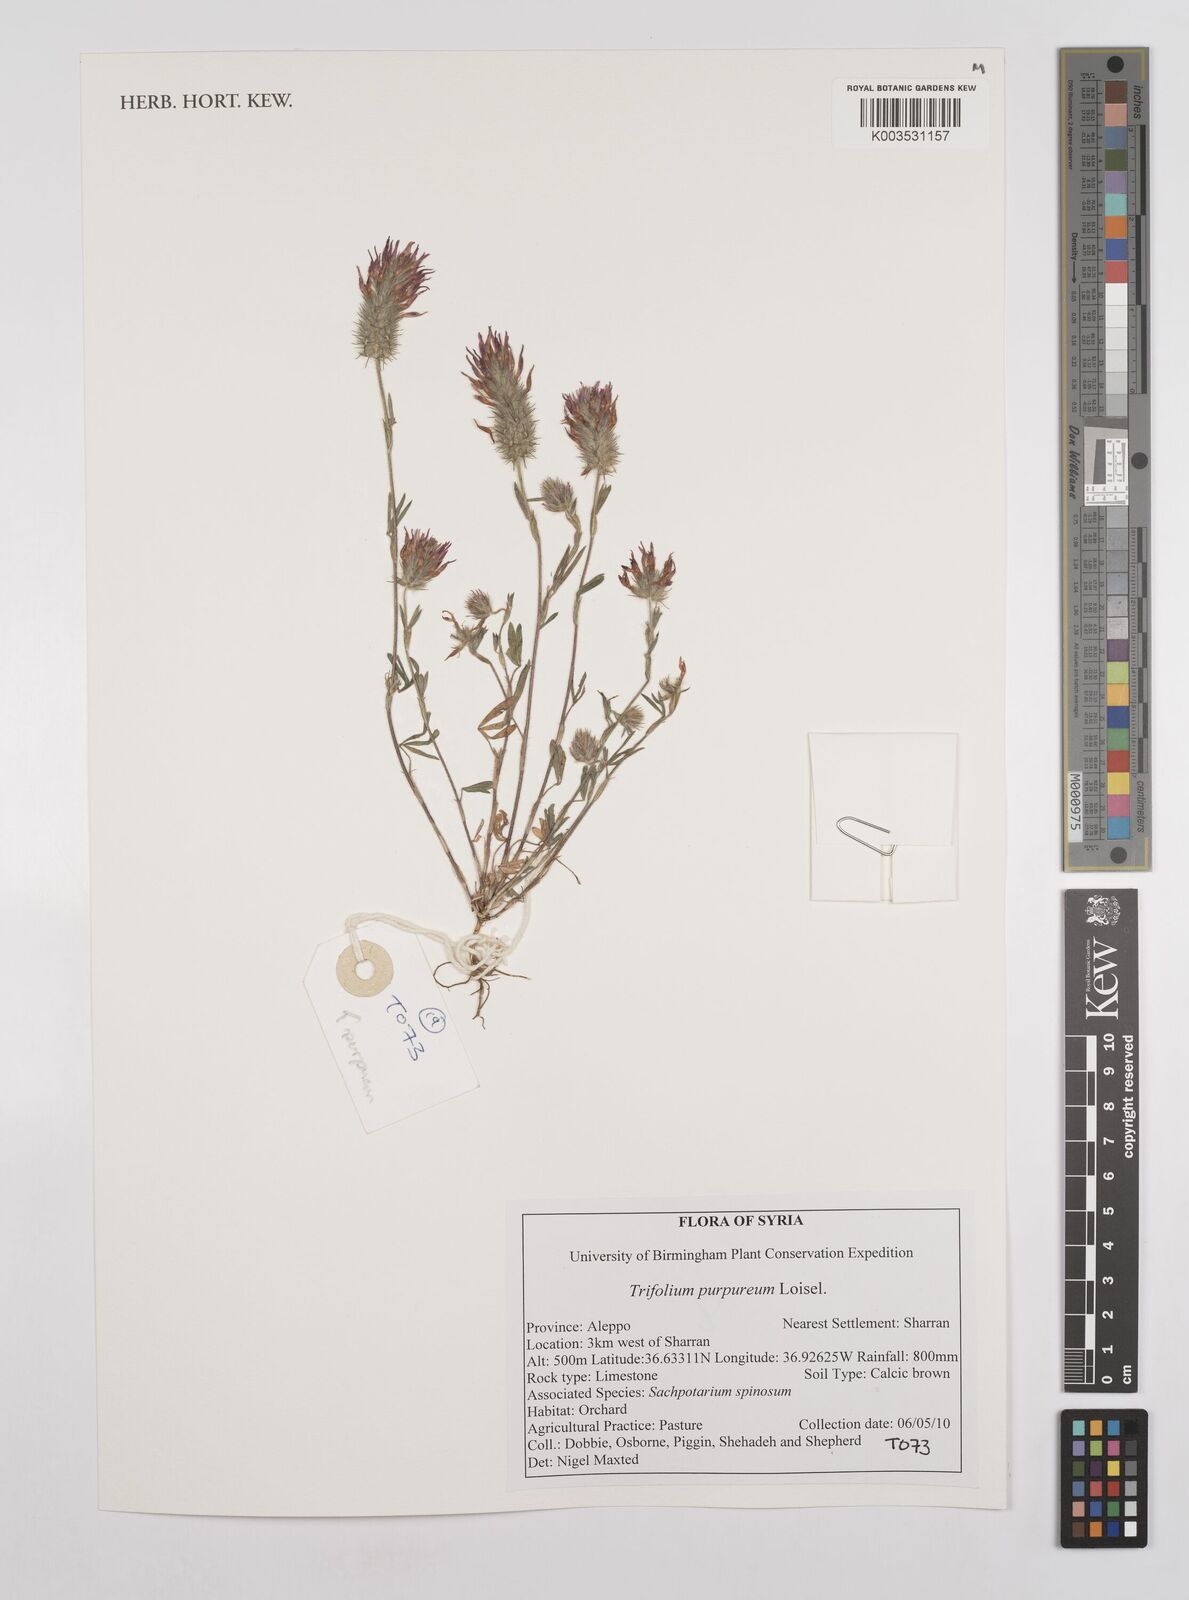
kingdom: Plantae
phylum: Tracheophyta
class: Magnoliopsida
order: Fabales
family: Fabaceae
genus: Trifolium
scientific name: Trifolium purpureum
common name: Purple clover
